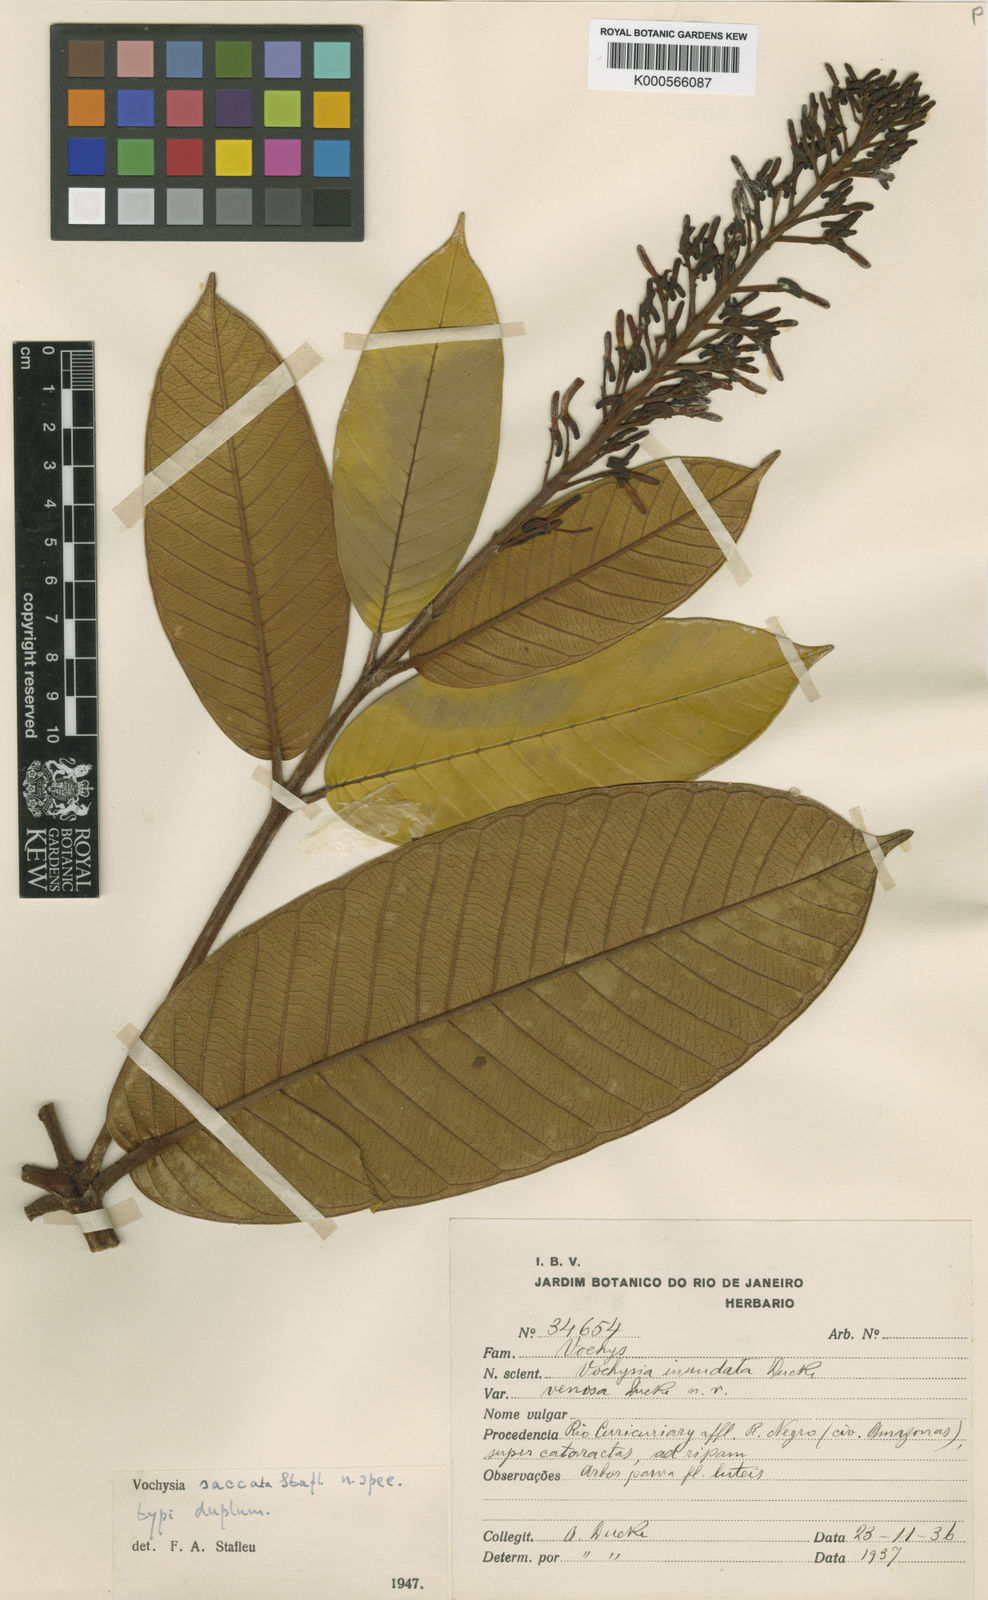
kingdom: Plantae
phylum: Tracheophyta
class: Magnoliopsida
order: Myrtales
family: Vochysiaceae
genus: Vochysia
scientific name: Vochysia saccata
